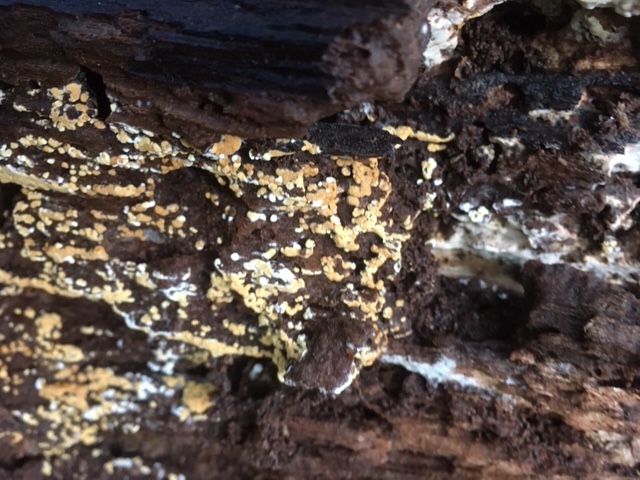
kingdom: Fungi
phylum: Basidiomycota
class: Agaricomycetes
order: Cantharellales
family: Botryobasidiaceae
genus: Botryobasidium
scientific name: Botryobasidium aureum
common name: gylden spindhinde
